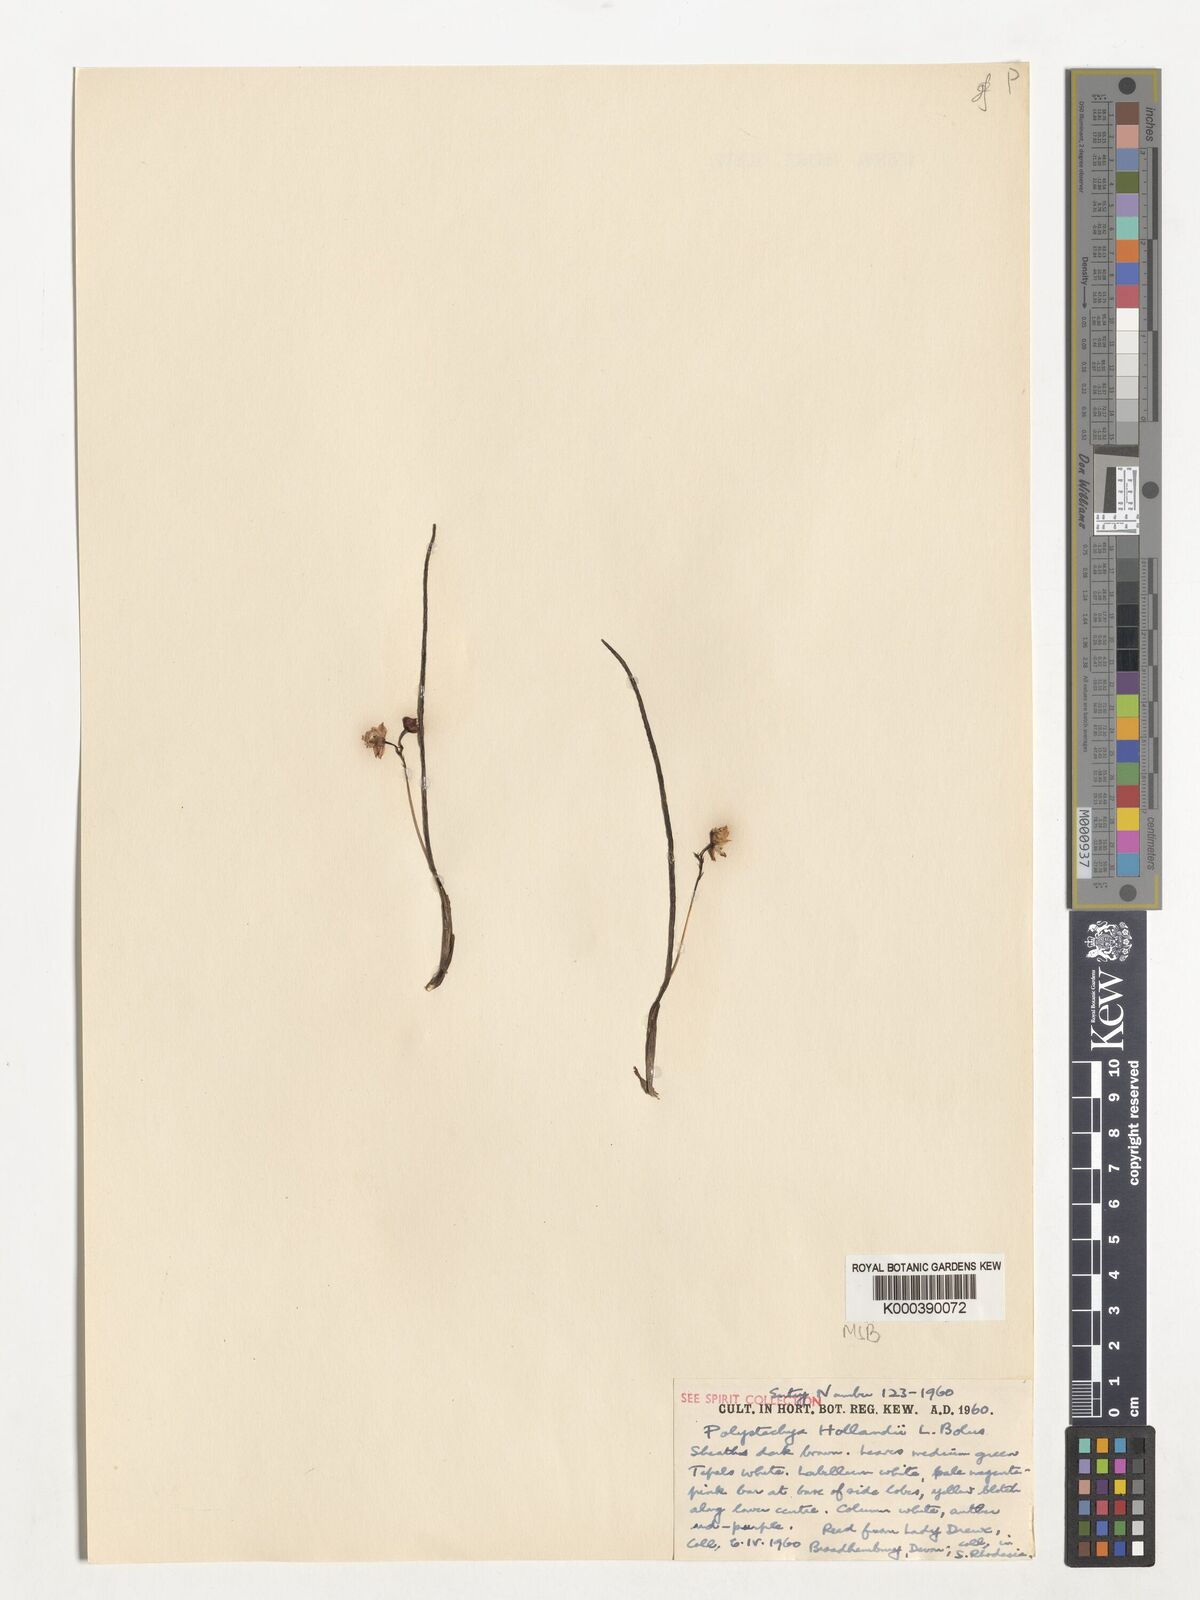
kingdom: Plantae
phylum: Tracheophyta
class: Liliopsida
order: Asparagales
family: Orchidaceae
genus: Polystachya
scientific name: Polystachya caespitifica
